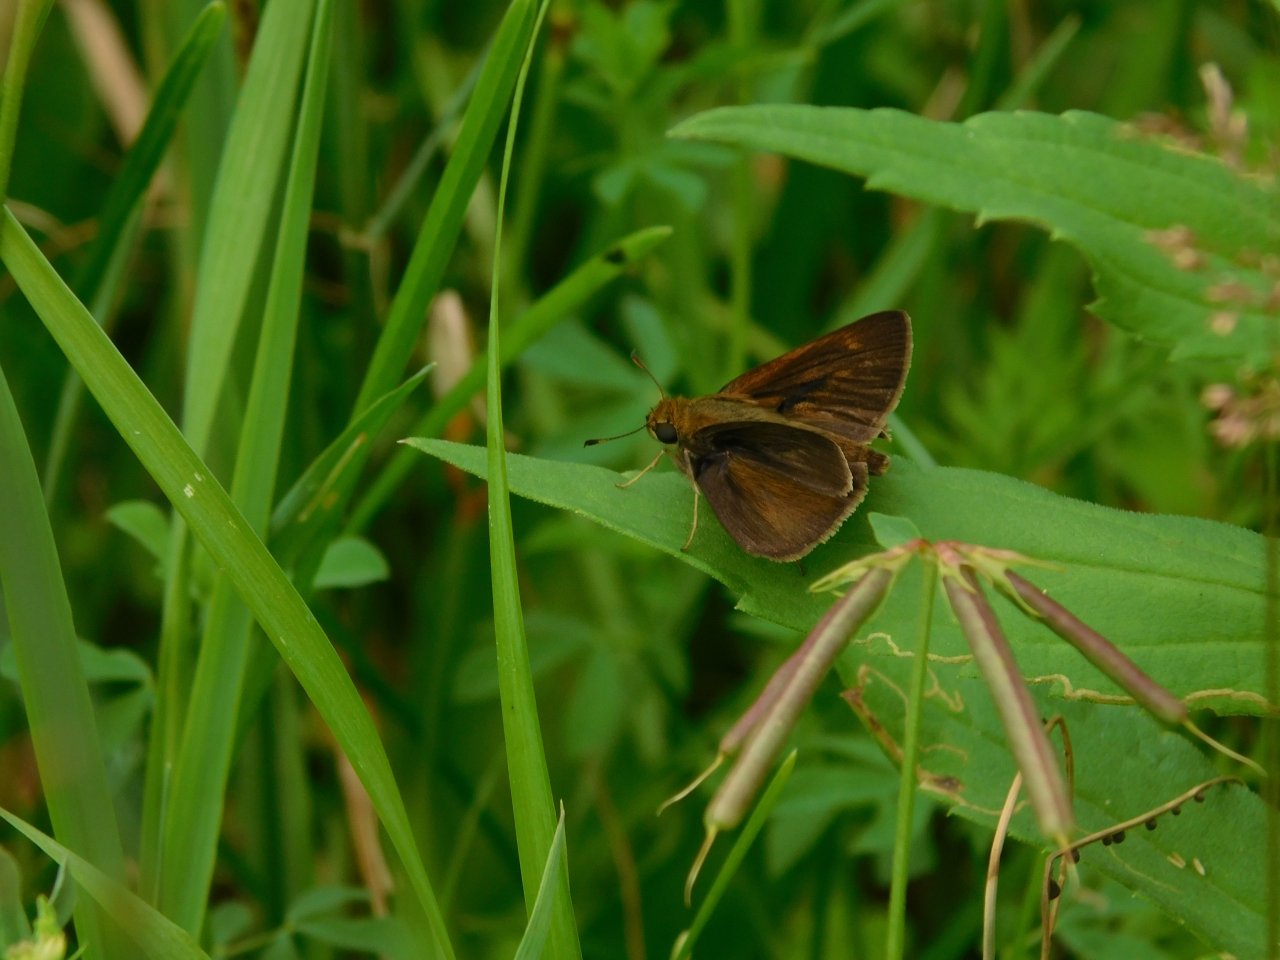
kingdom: Animalia
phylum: Arthropoda
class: Insecta
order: Lepidoptera
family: Hesperiidae
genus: Euphyes
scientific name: Euphyes vestris
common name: Dun Skipper
